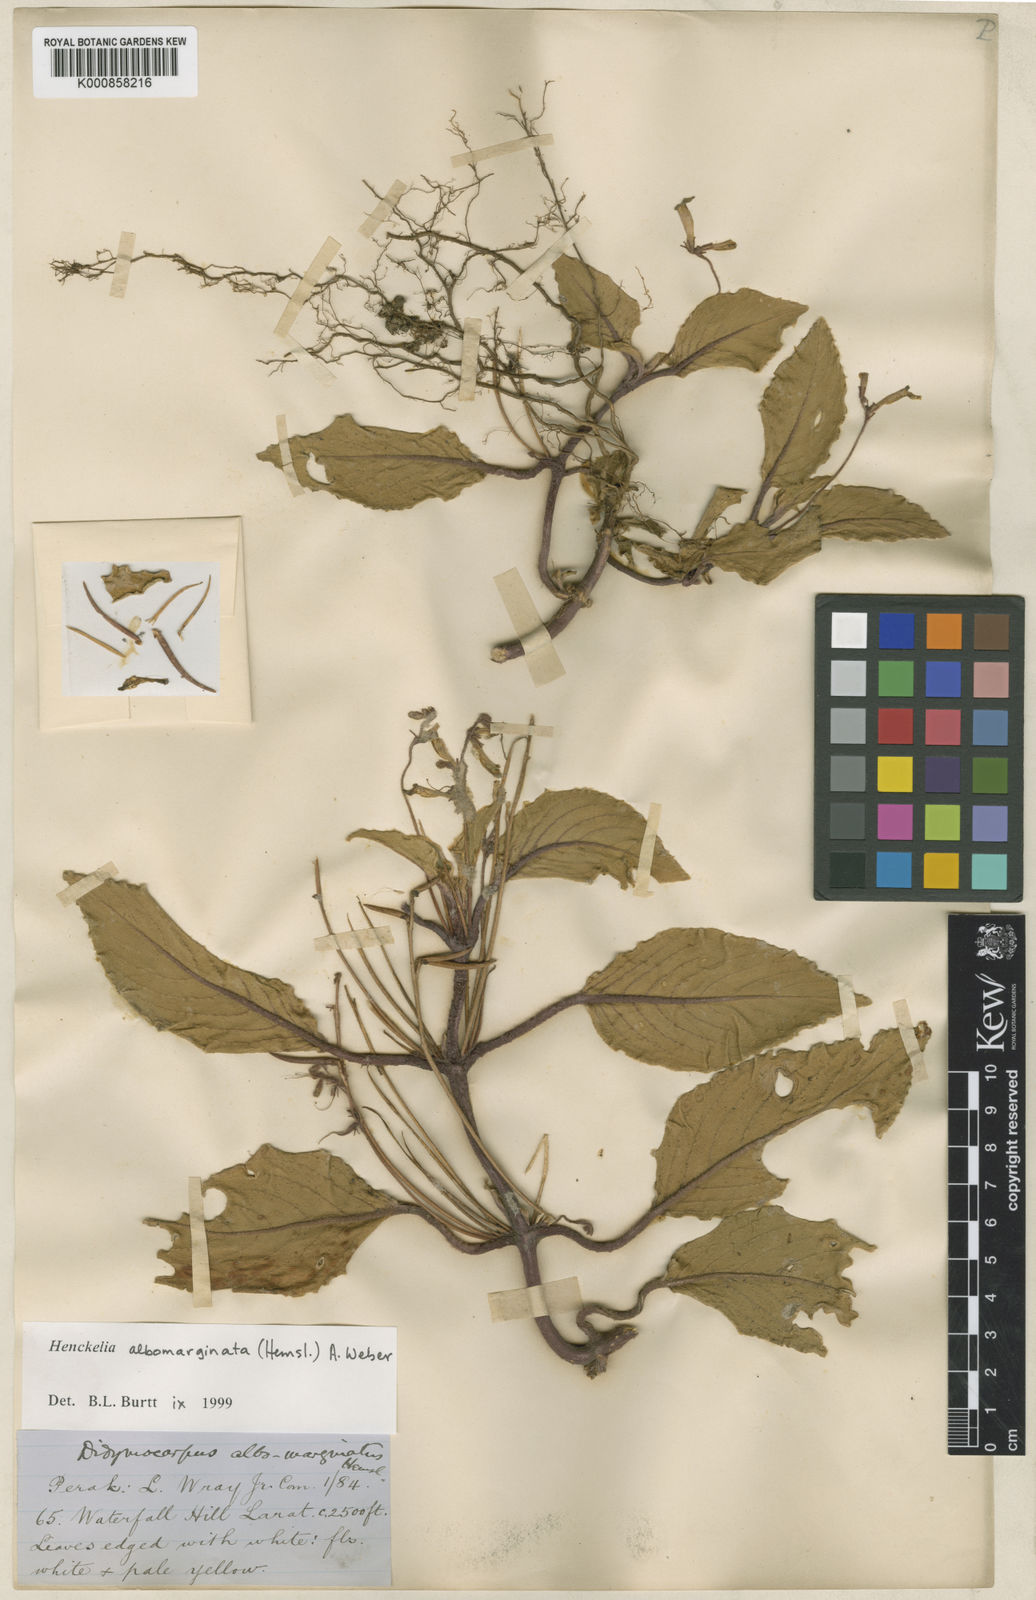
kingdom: Plantae
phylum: Tracheophyta
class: Magnoliopsida
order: Lamiales
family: Gesneriaceae
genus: Codonoboea
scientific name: Codonoboea albomarginata
